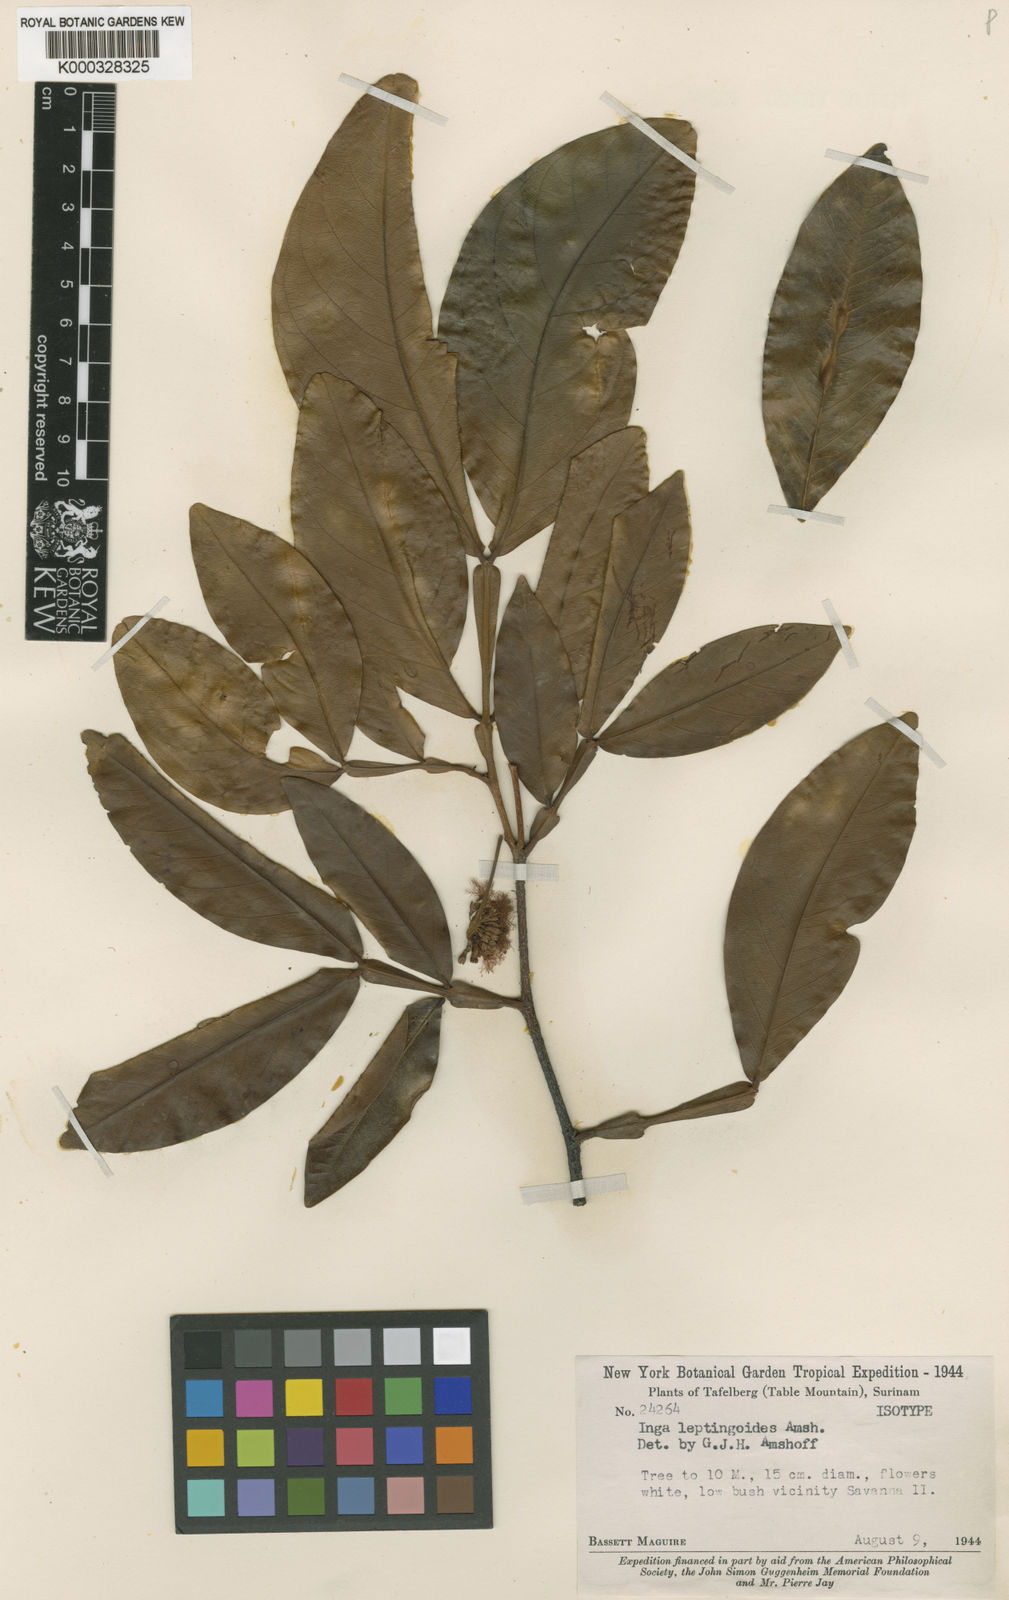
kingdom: Plantae
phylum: Tracheophyta
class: Magnoliopsida
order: Fabales
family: Fabaceae
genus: Inga
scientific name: Inga leptingoides
